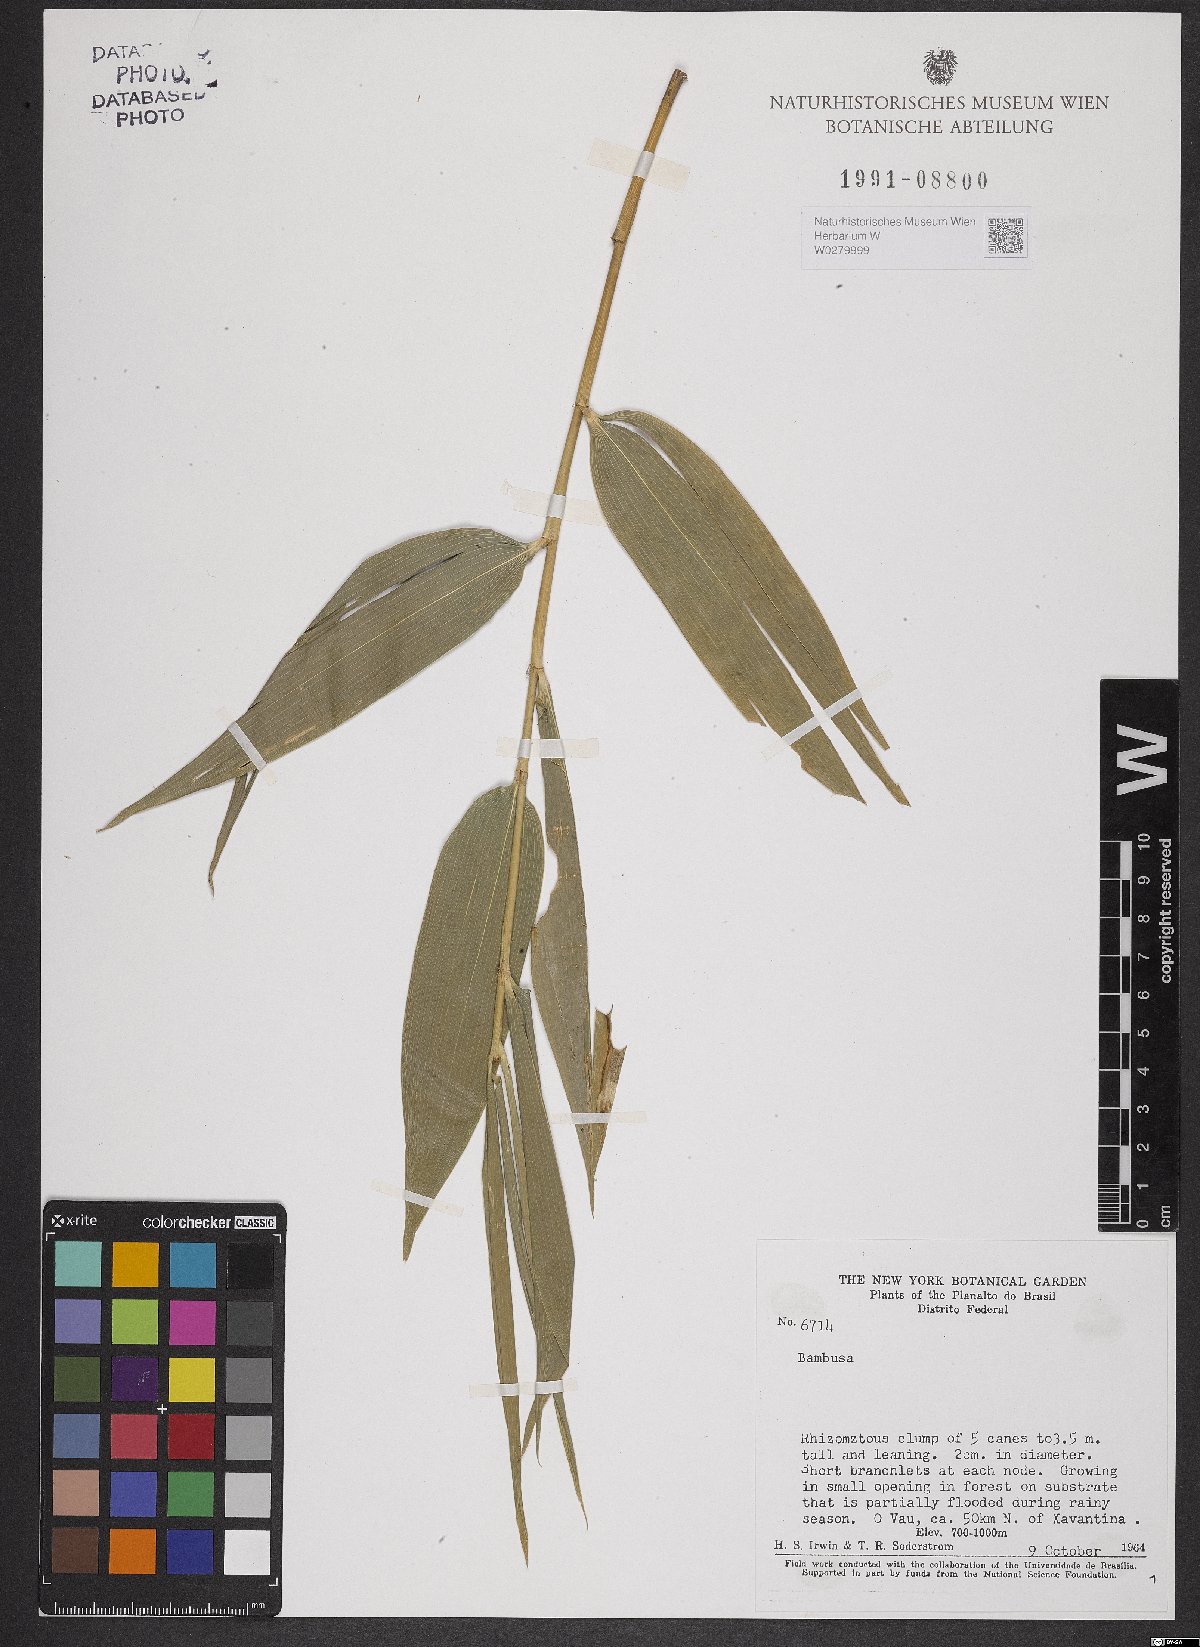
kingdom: Plantae
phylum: Tracheophyta
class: Liliopsida
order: Poales
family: Poaceae
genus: Bambusa
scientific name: Bambusa
